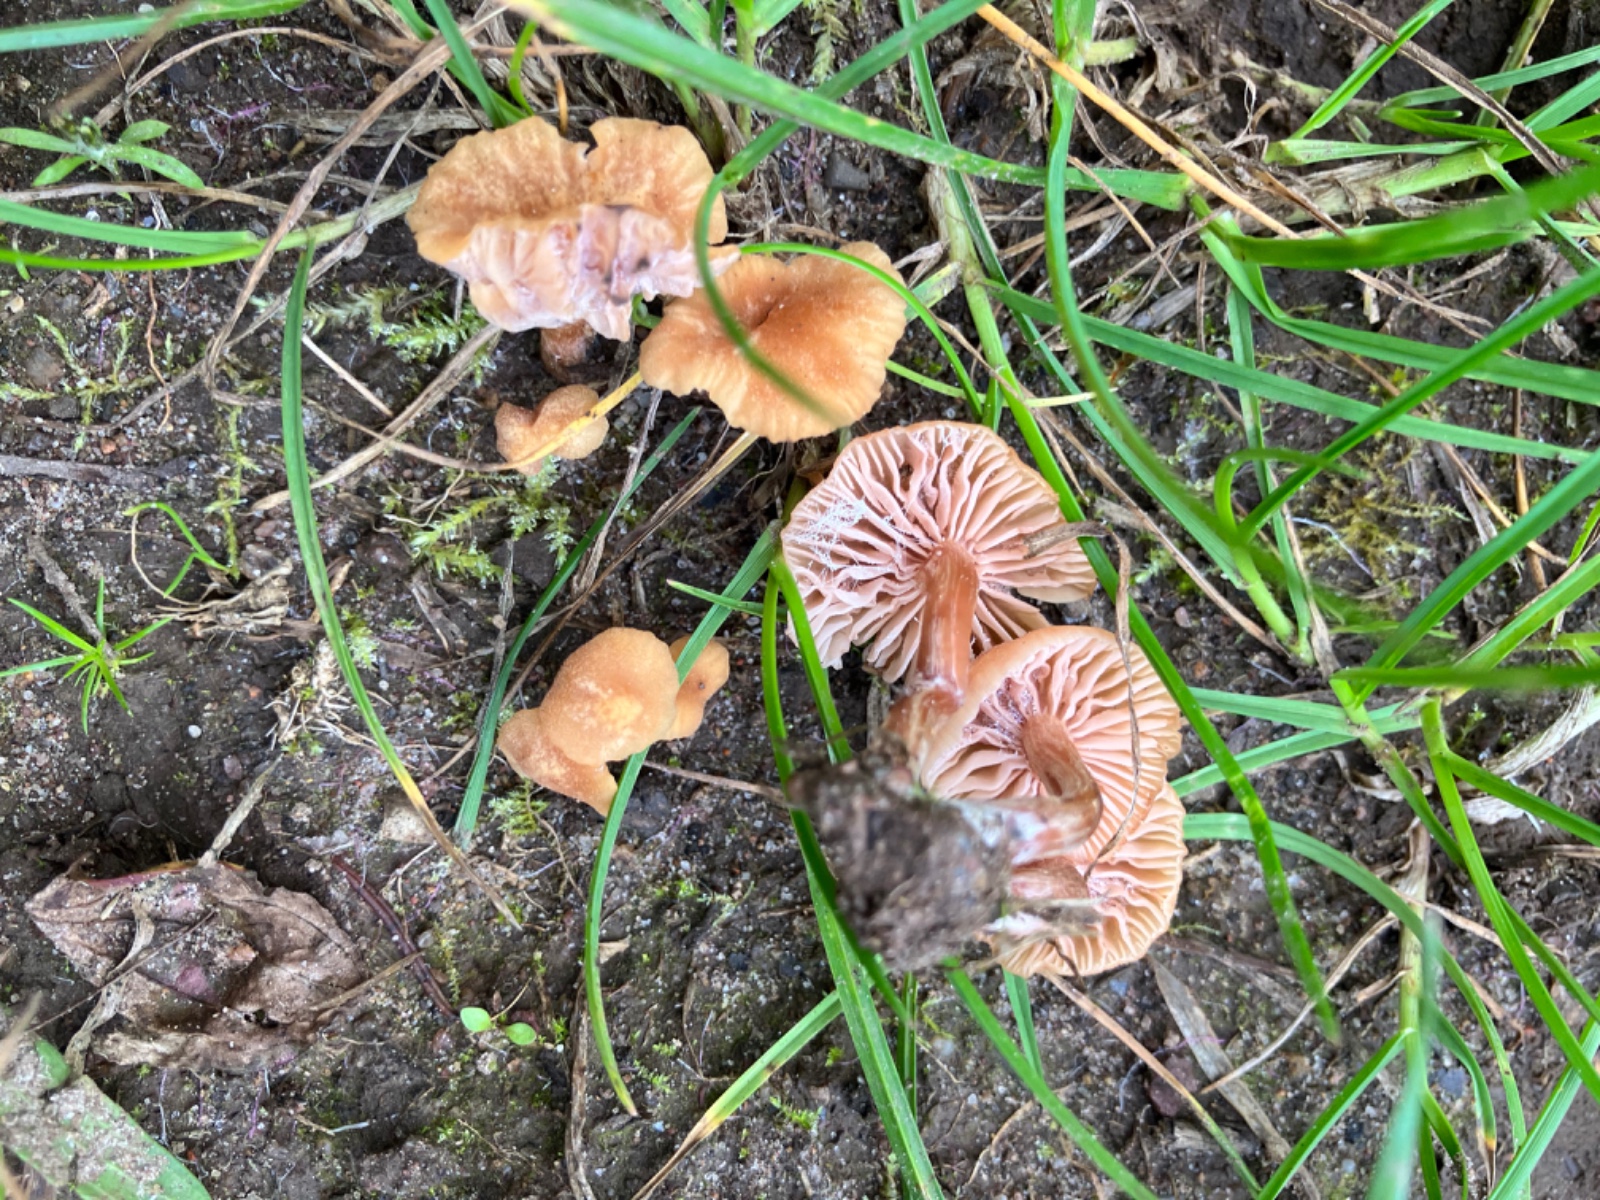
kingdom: Fungi
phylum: Basidiomycota
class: Agaricomycetes
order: Agaricales
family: Hydnangiaceae
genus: Laccaria
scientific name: Laccaria
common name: ametysthat
